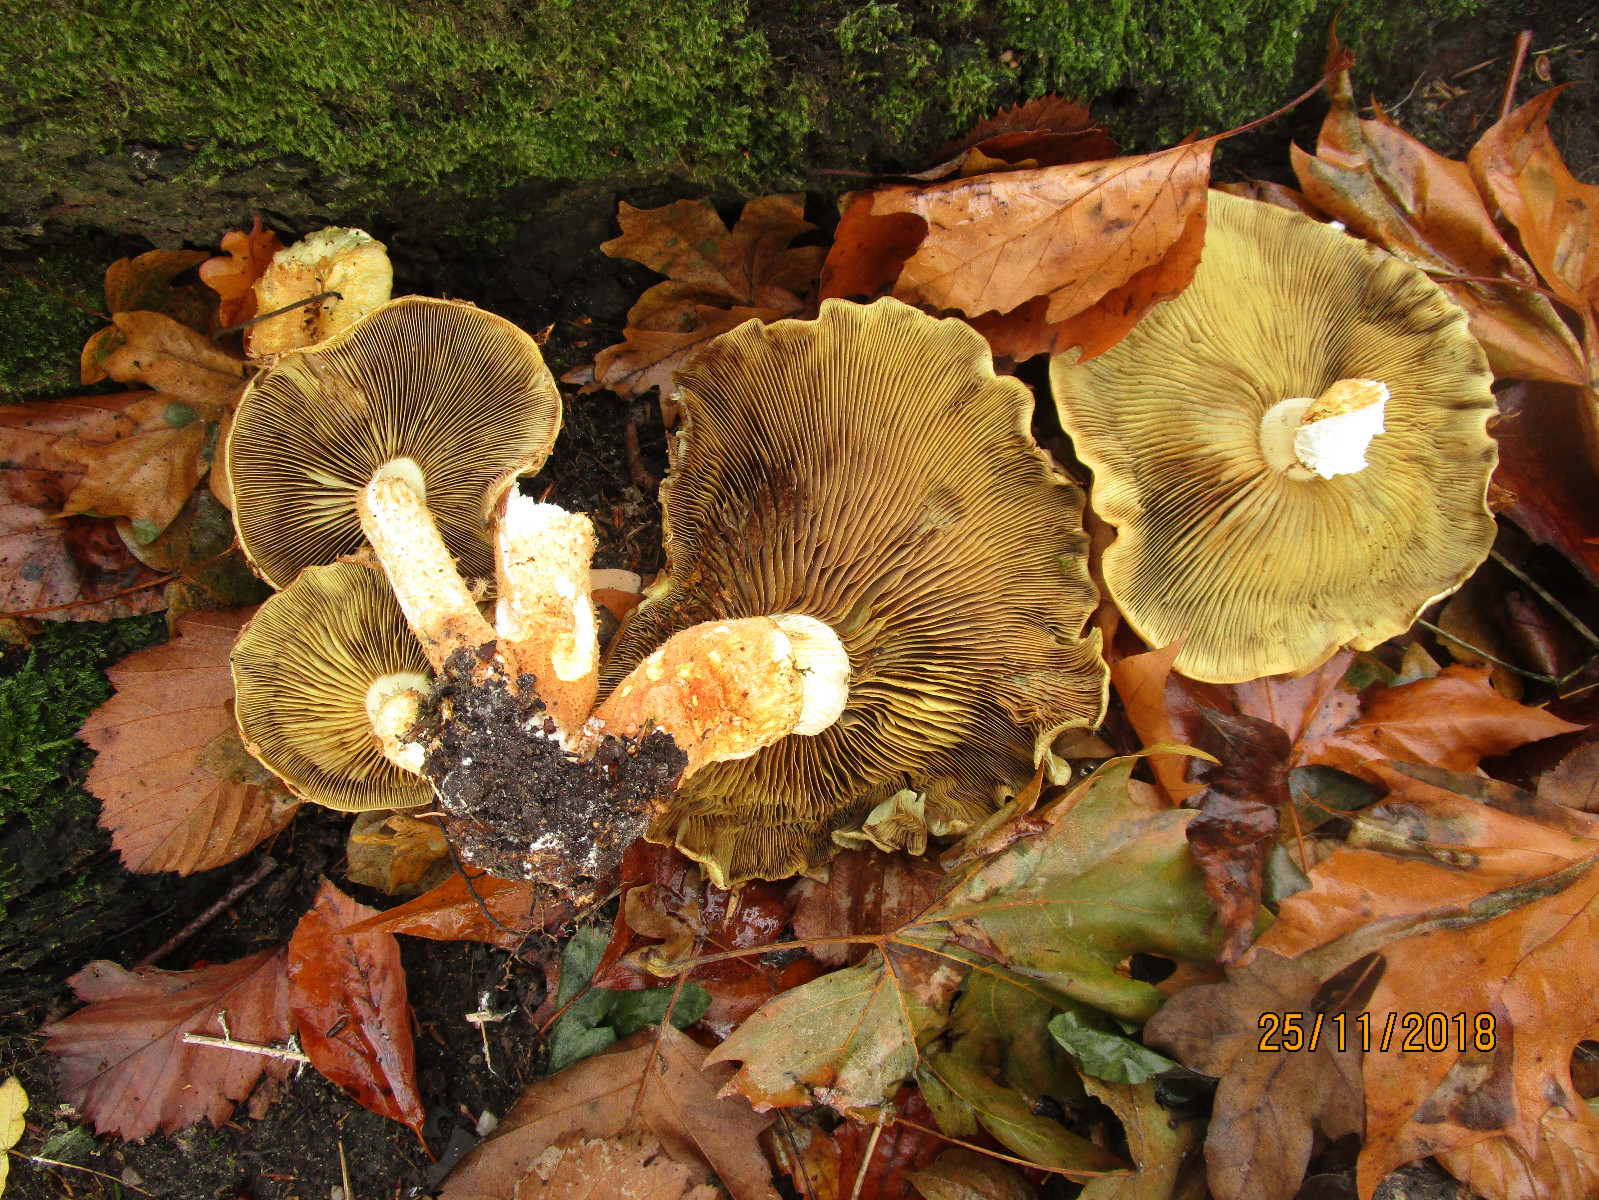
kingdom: Fungi
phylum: Basidiomycota
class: Agaricomycetes
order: Agaricales
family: Hymenogastraceae
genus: Gymnopilus
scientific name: Gymnopilus penetrans
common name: plettet flammehat
